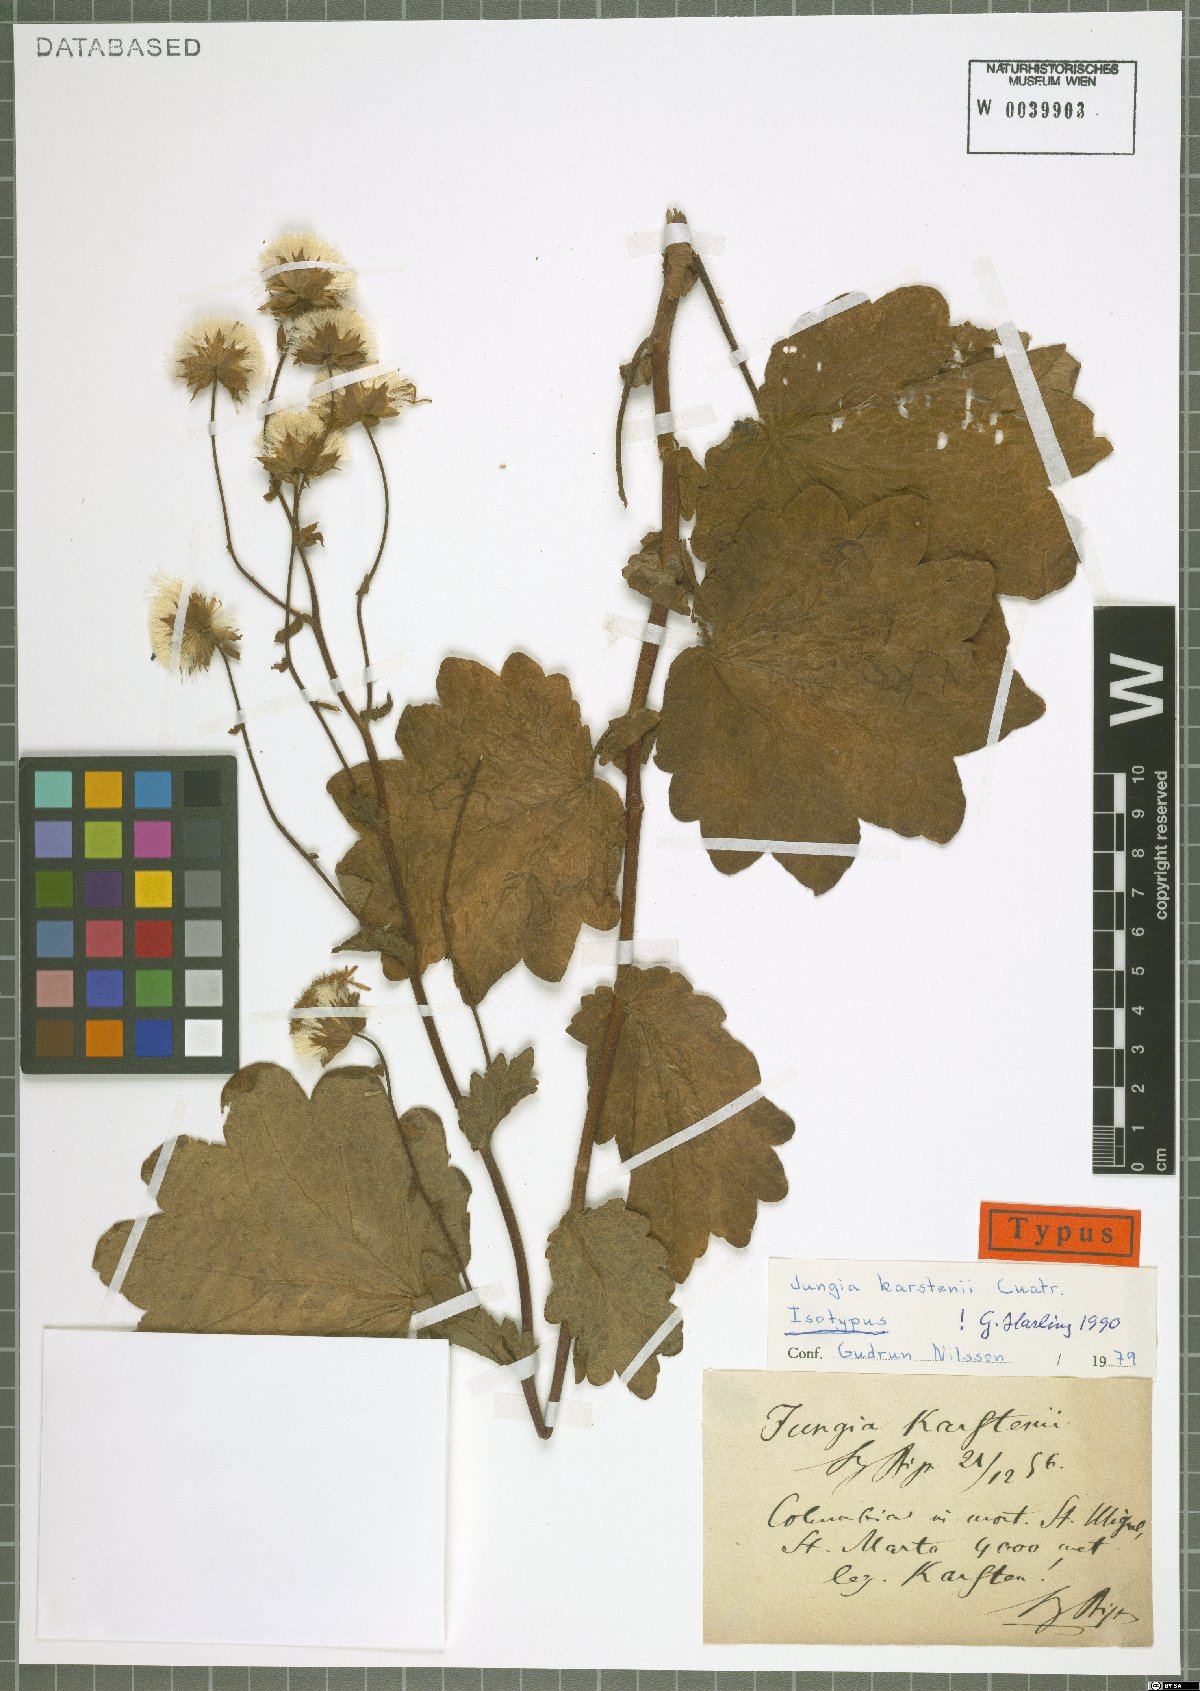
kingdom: Plantae
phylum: Tracheophyta
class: Magnoliopsida
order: Asterales
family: Asteraceae
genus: Jungia
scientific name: Jungia karstenii
